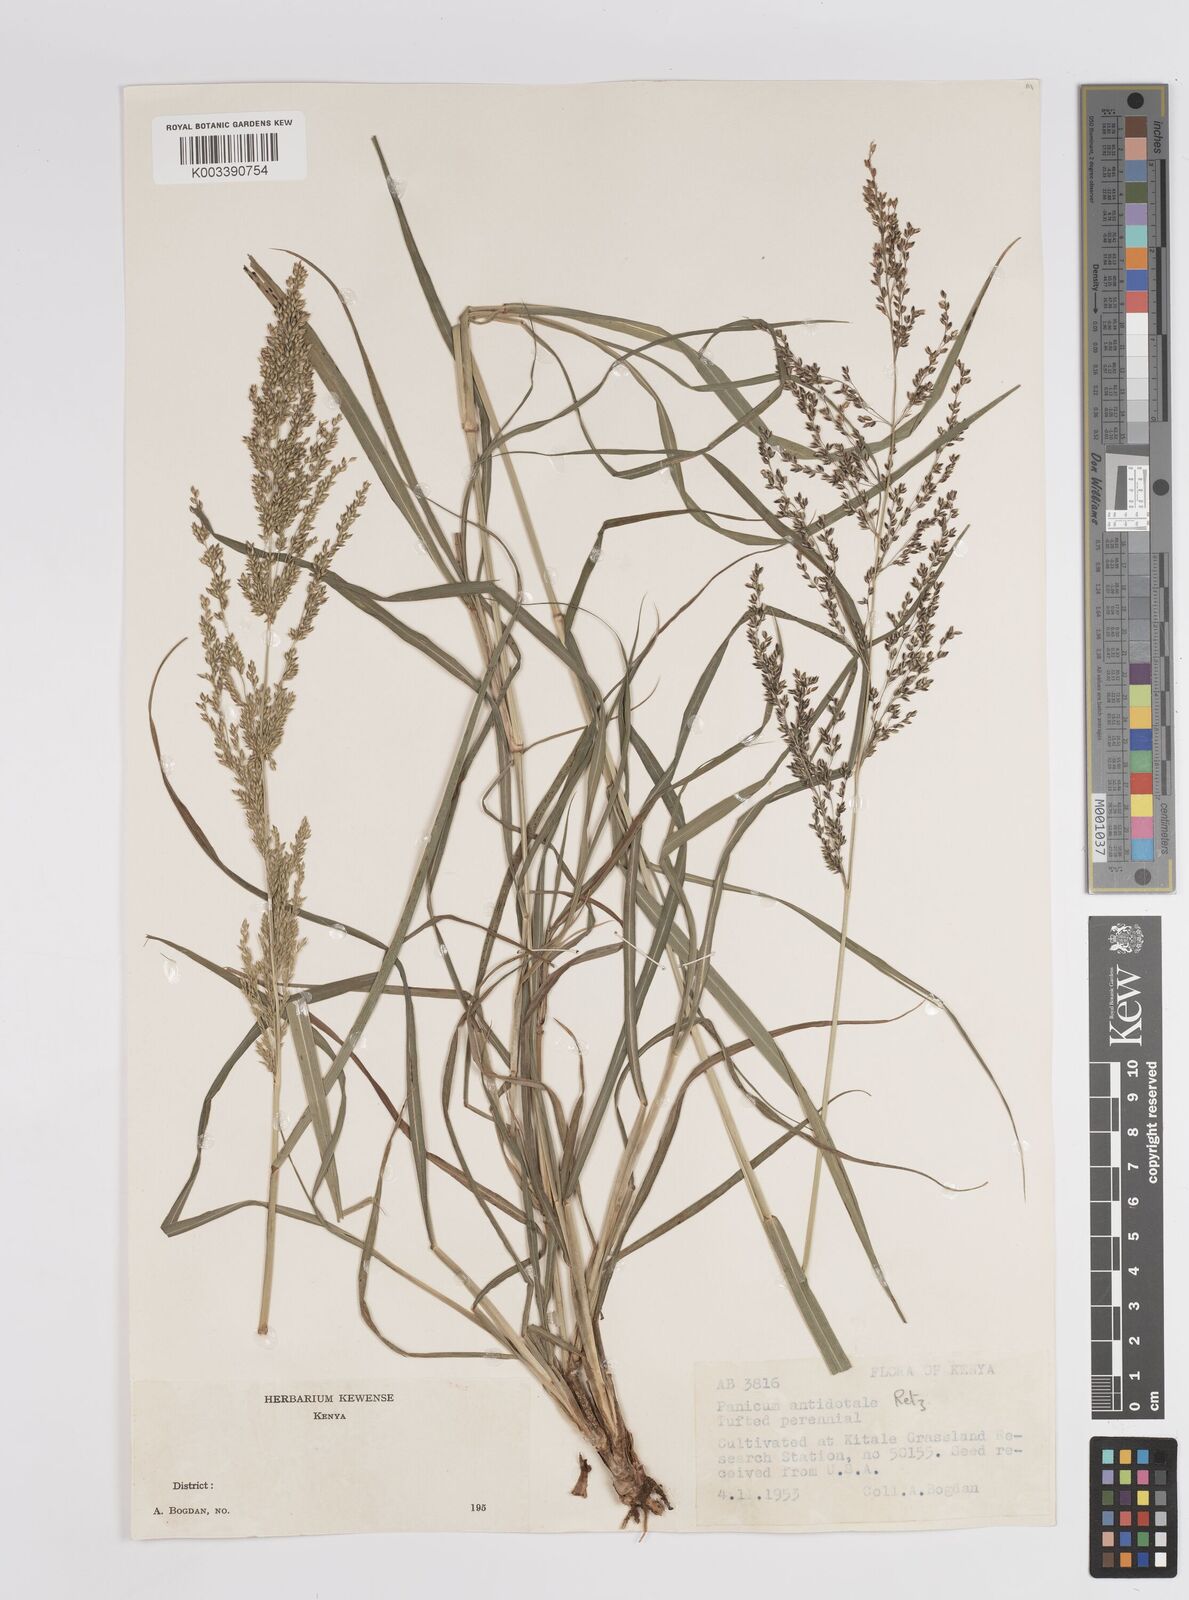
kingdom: Plantae
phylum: Tracheophyta
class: Liliopsida
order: Poales
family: Poaceae
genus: Panicum
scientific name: Panicum antidotale
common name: Blue panicum
